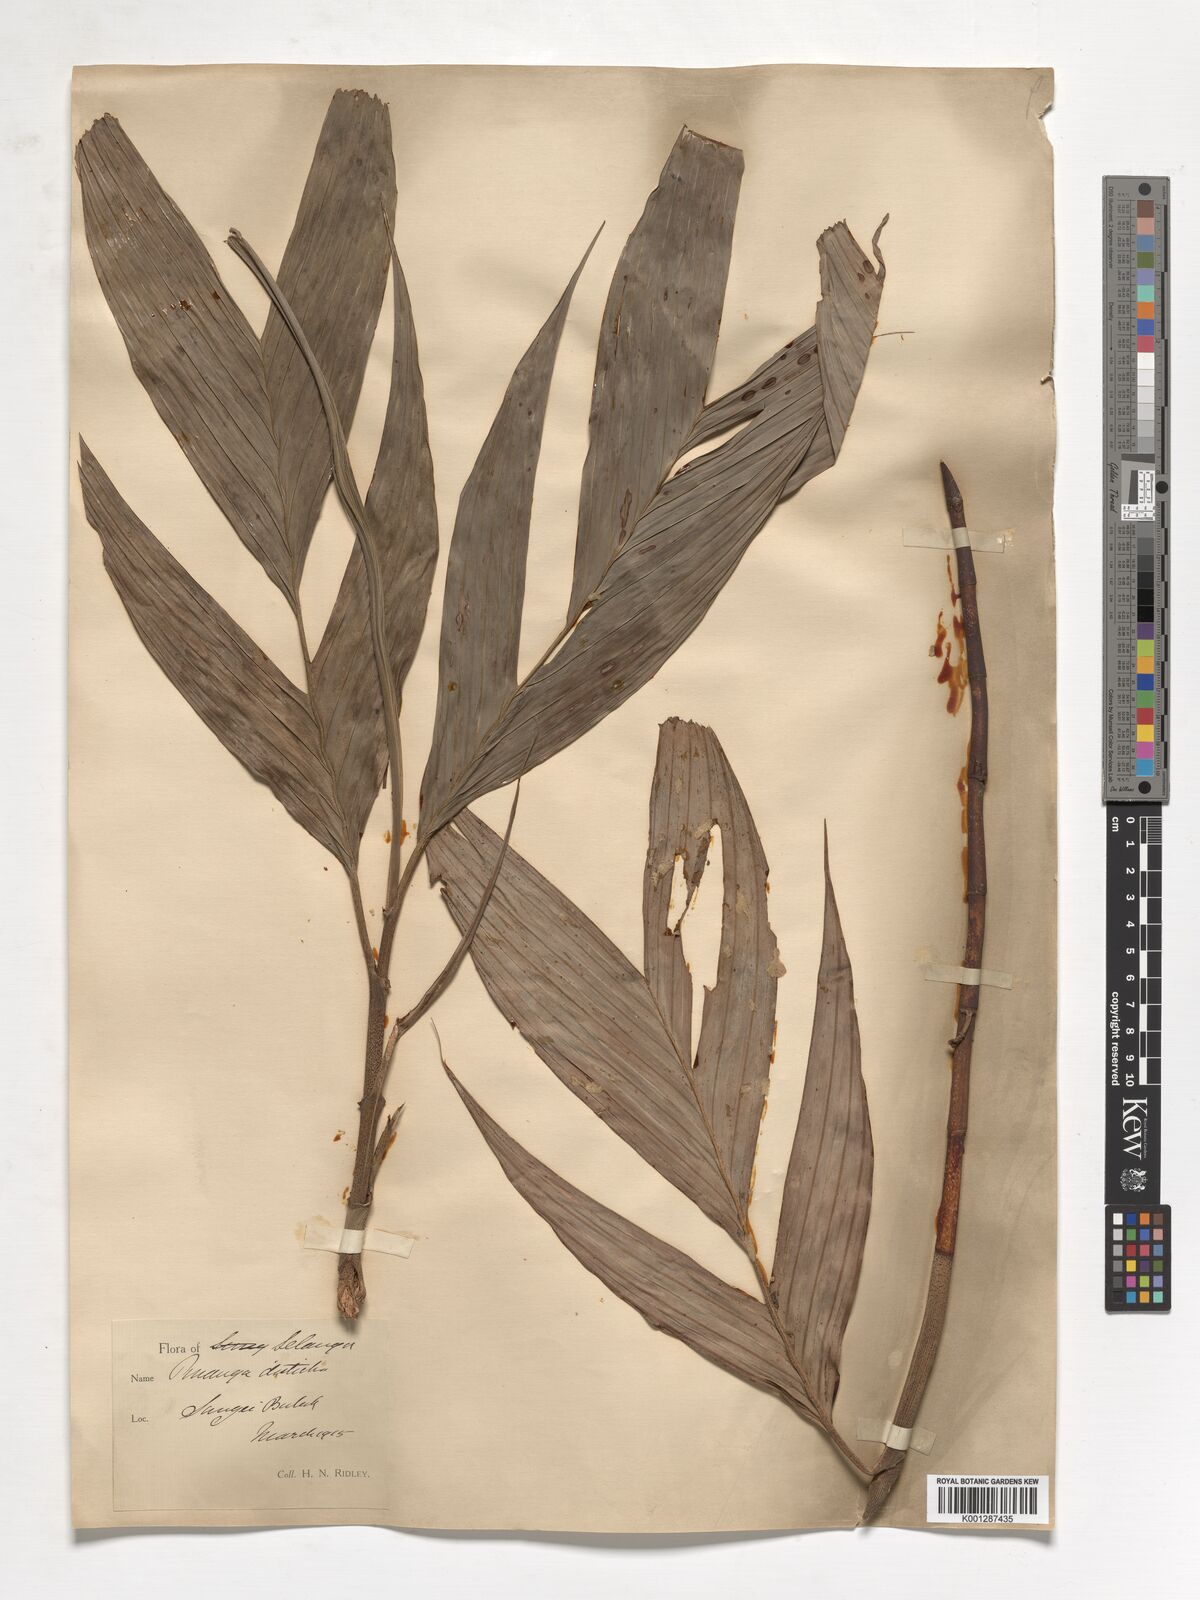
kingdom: Plantae
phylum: Tracheophyta
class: Liliopsida
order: Arecales
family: Arecaceae
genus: Pinanga
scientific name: Pinanga disticha
